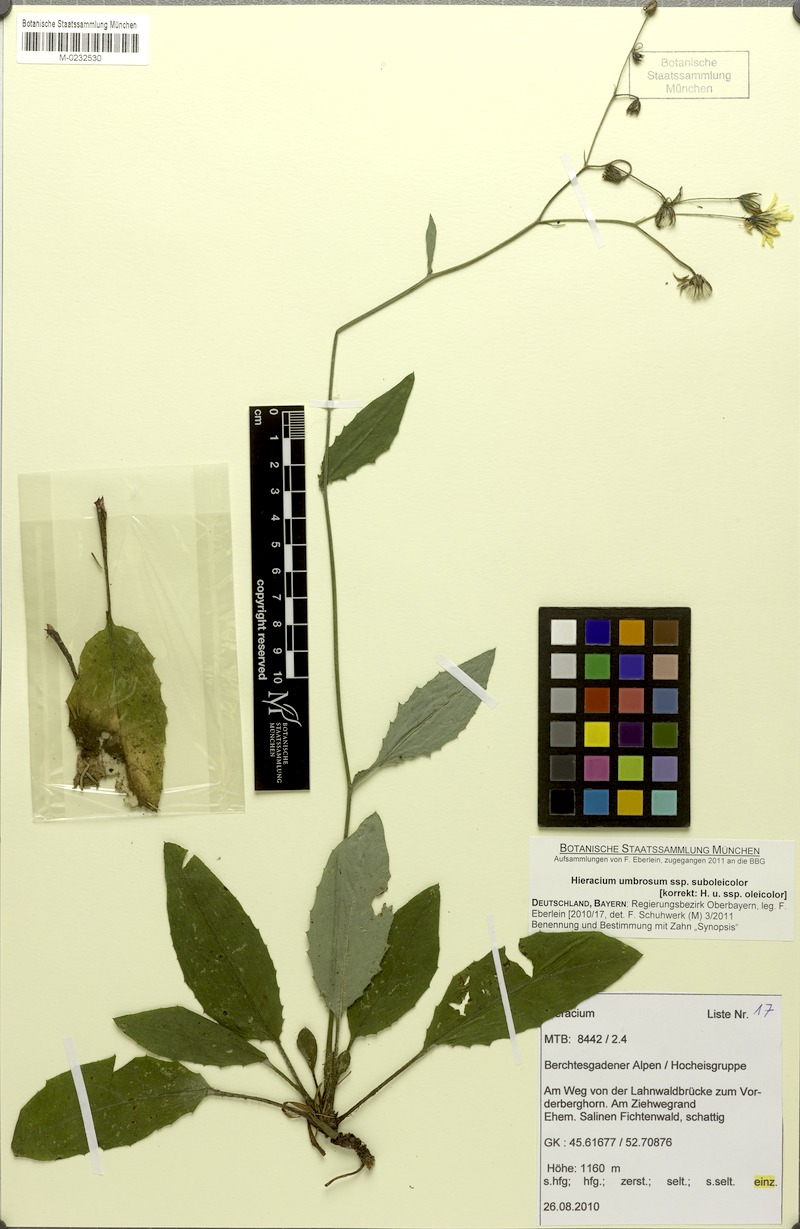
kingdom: Plantae
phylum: Tracheophyta
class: Magnoliopsida
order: Asterales
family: Asteraceae
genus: Hieracium
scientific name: Hieracium umbrosum
